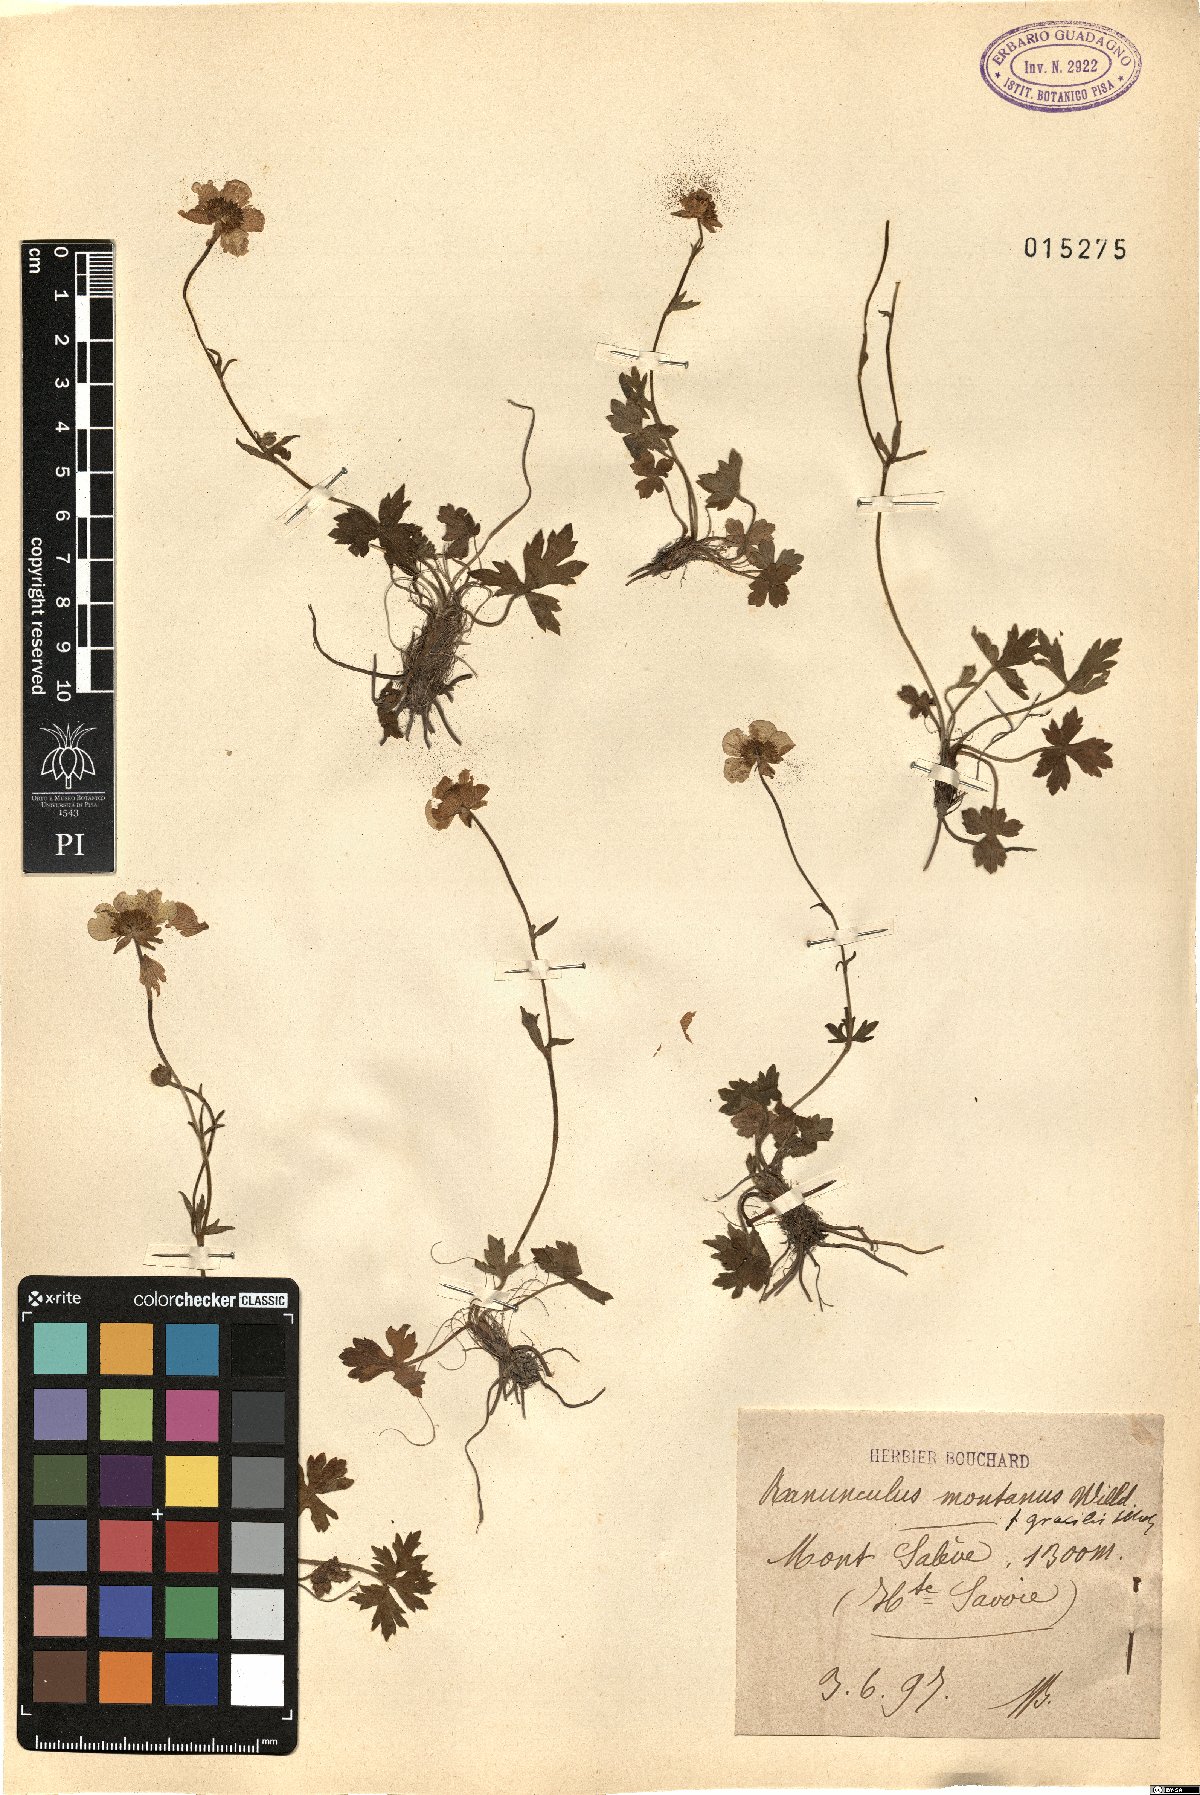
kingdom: Plantae
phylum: Tracheophyta
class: Magnoliopsida
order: Ranunculales
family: Ranunculaceae
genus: Ranunculus
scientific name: Ranunculus gracilis
